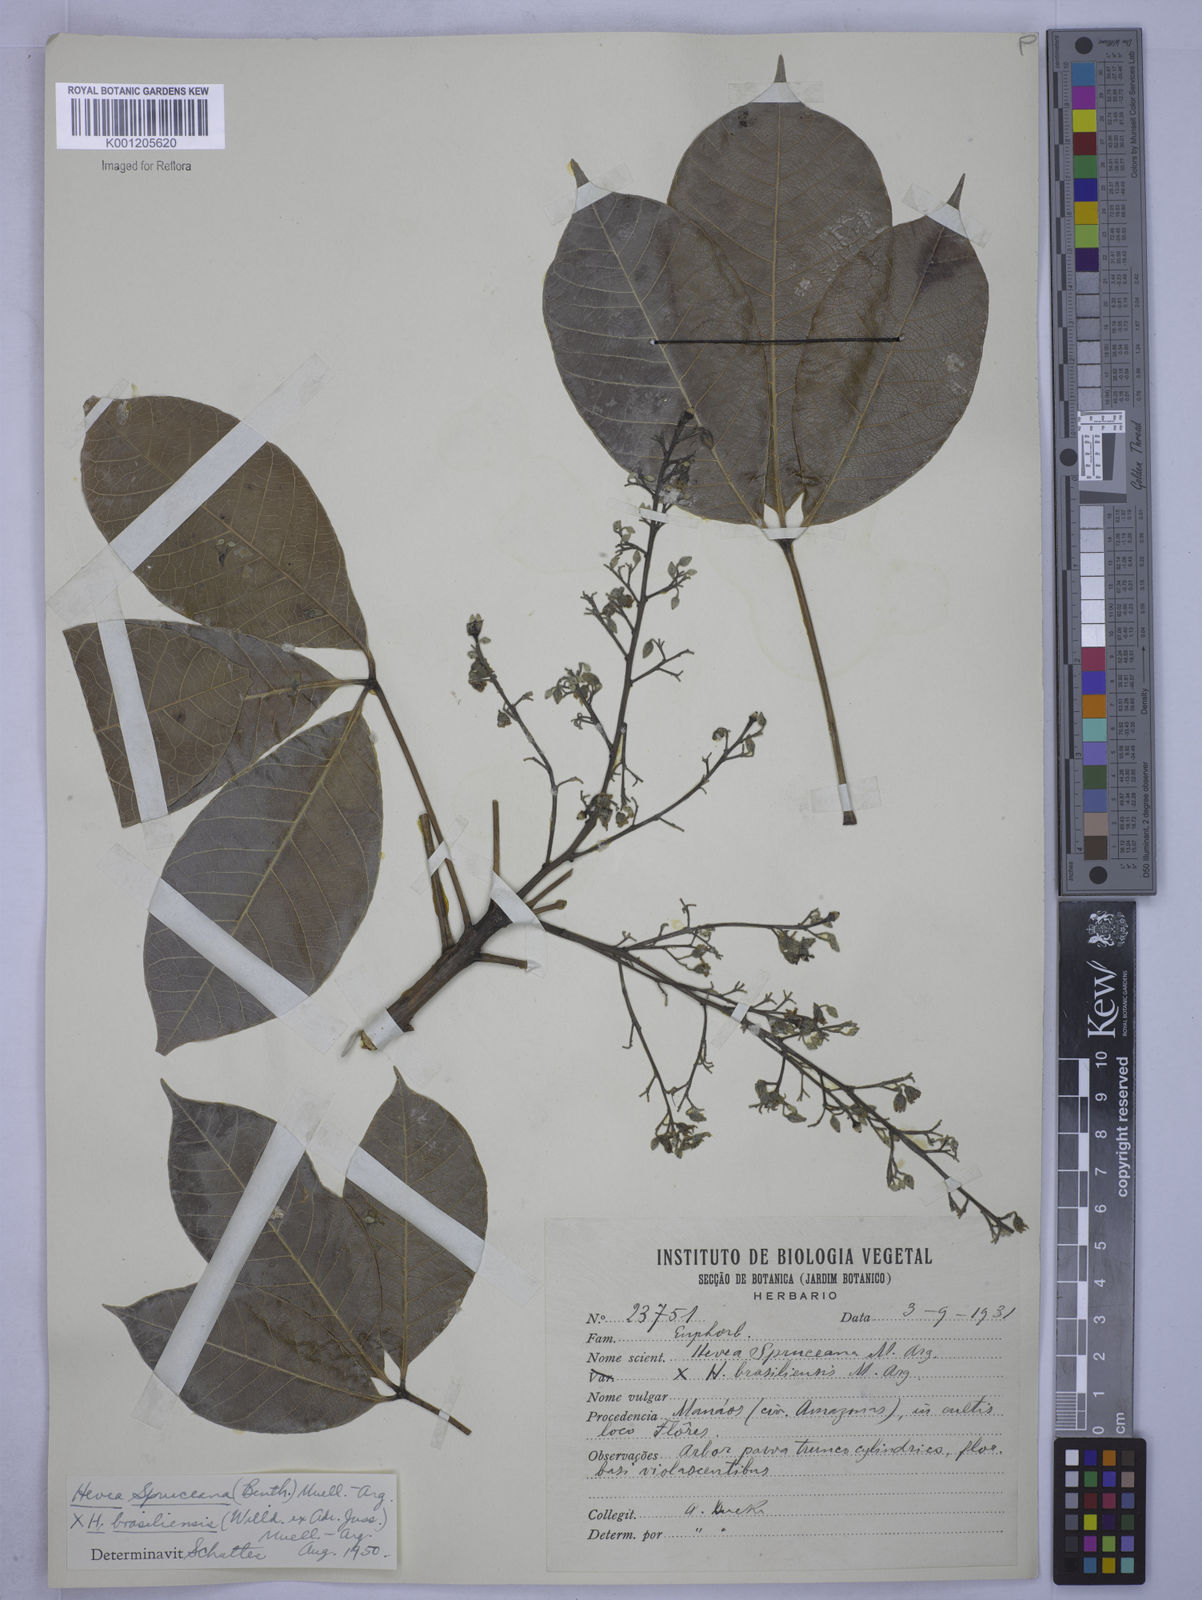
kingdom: Plantae
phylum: Tracheophyta
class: Magnoliopsida
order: Malpighiales
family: Euphorbiaceae
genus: Hevea
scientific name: Hevea
